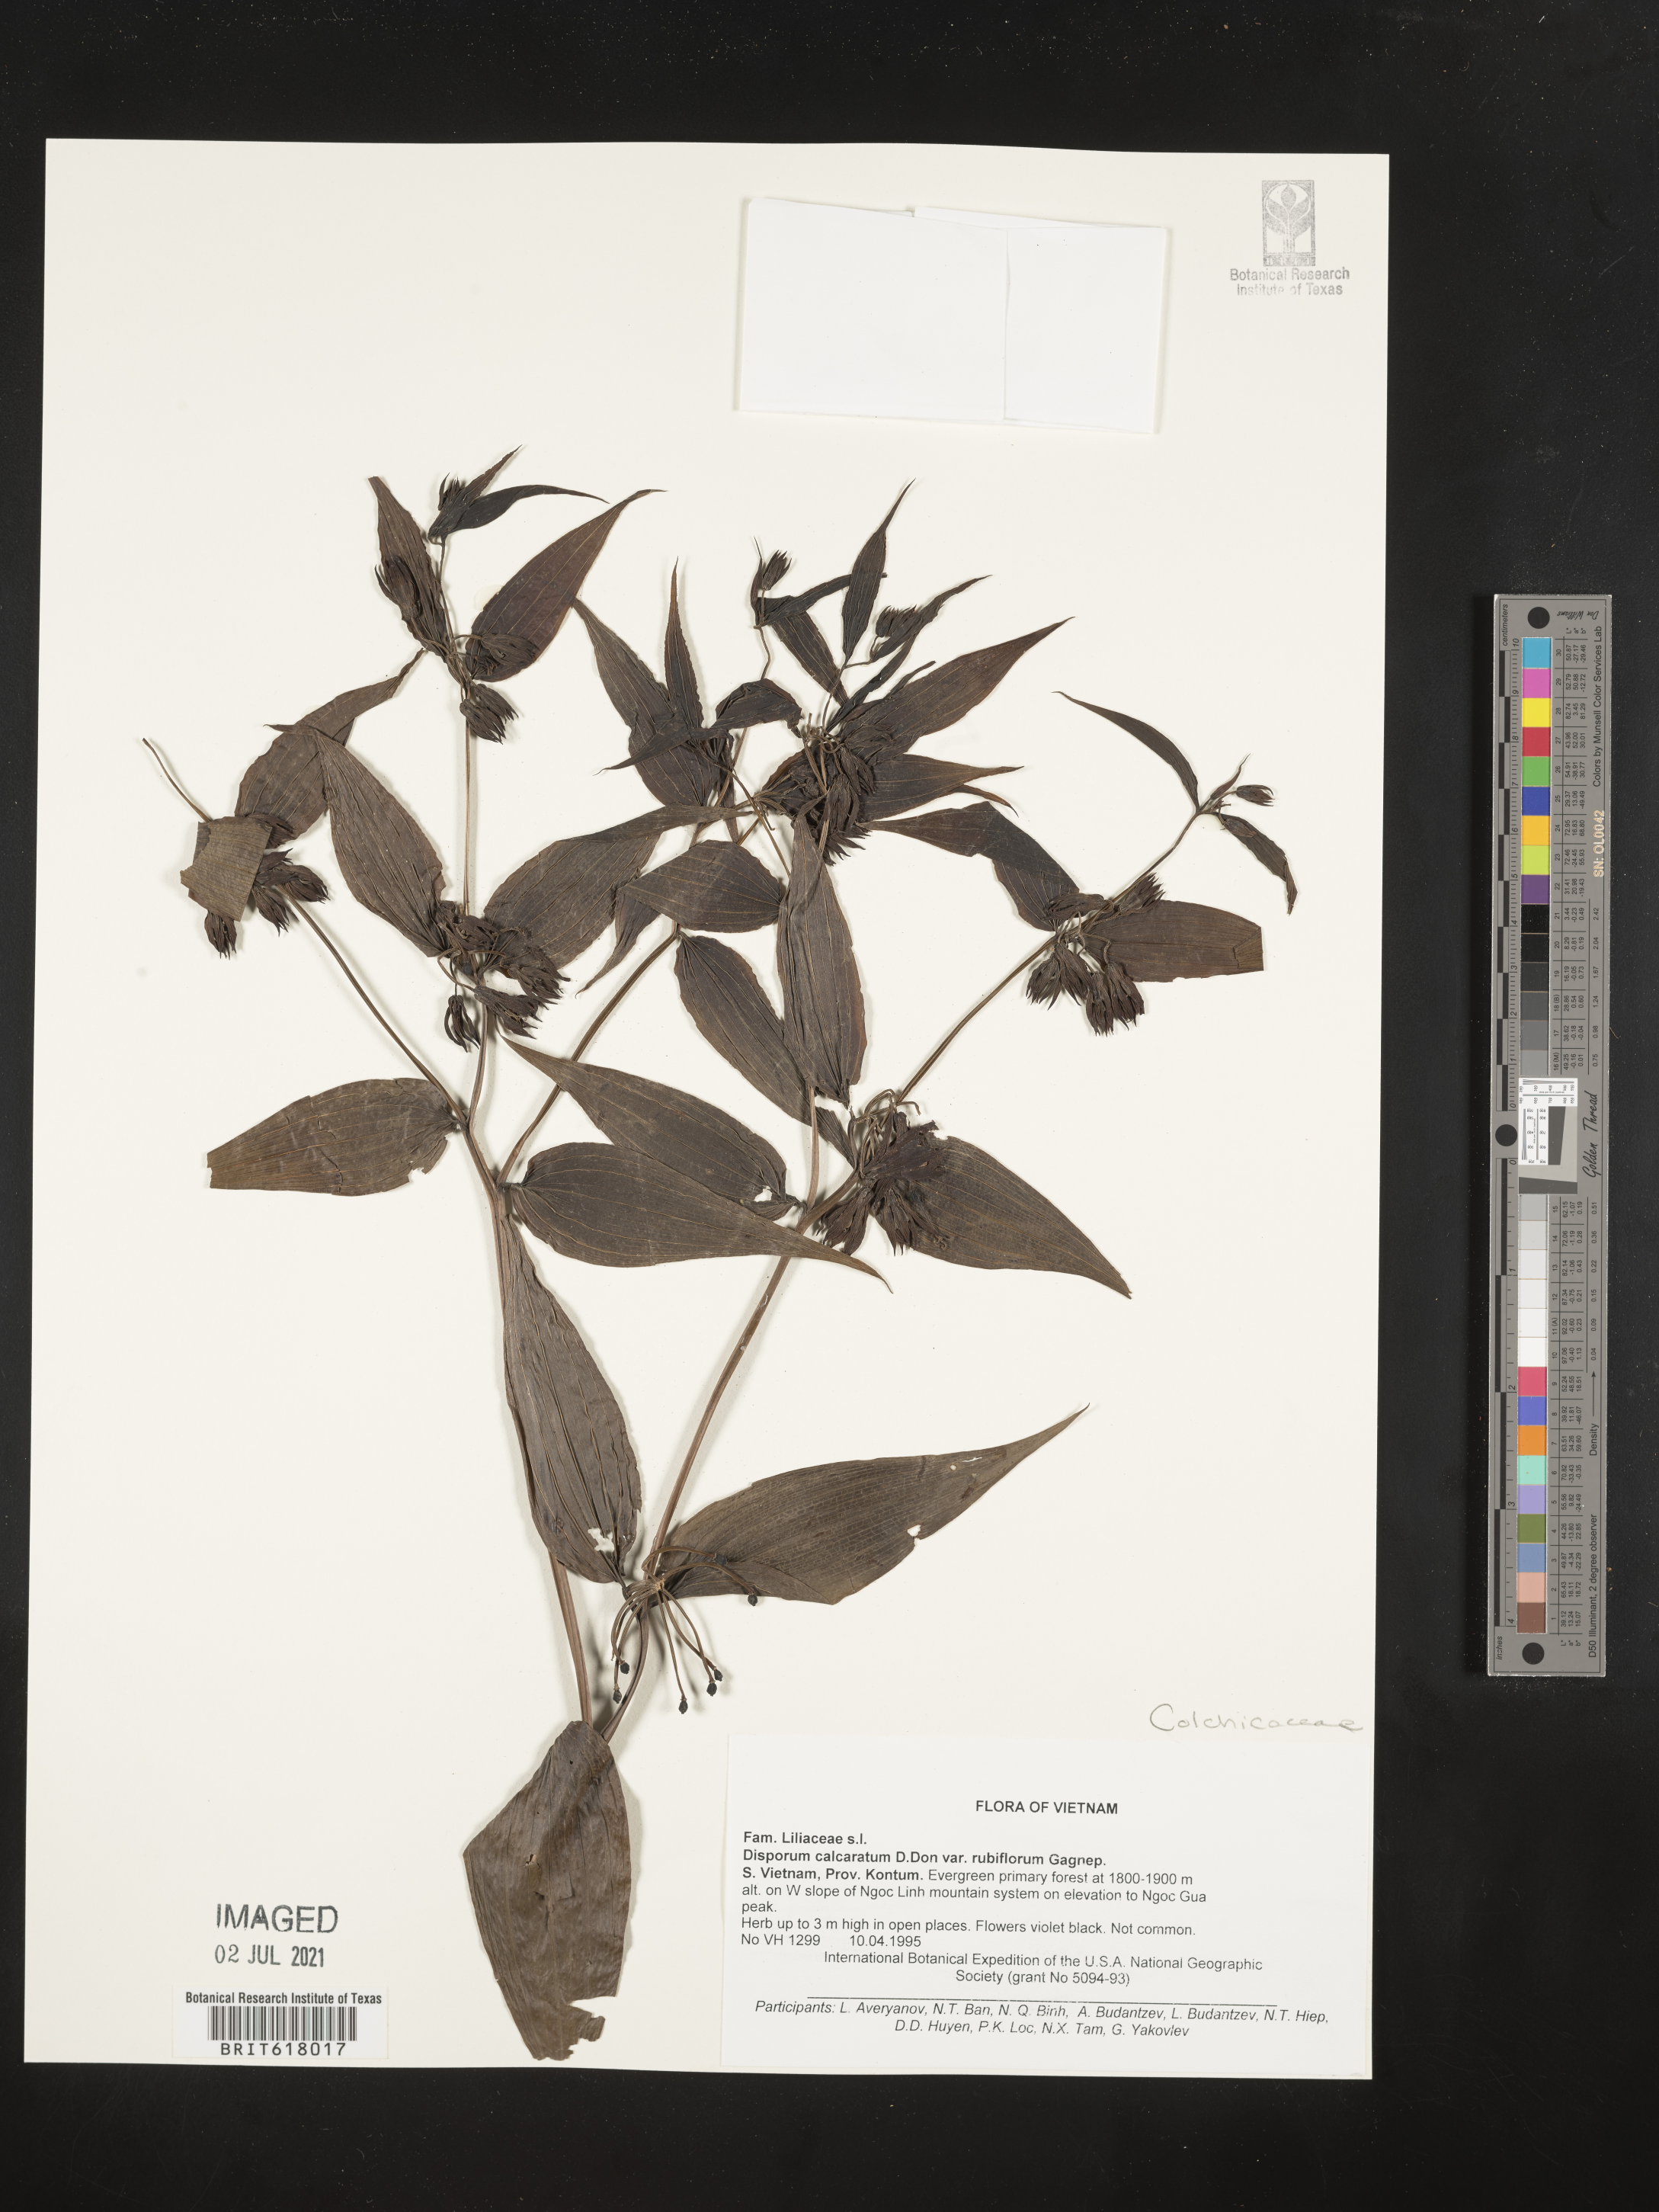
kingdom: Plantae
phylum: Tracheophyta
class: Liliopsida
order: Liliales
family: Colchicaceae
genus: Disporum
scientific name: Disporum calcaratum
